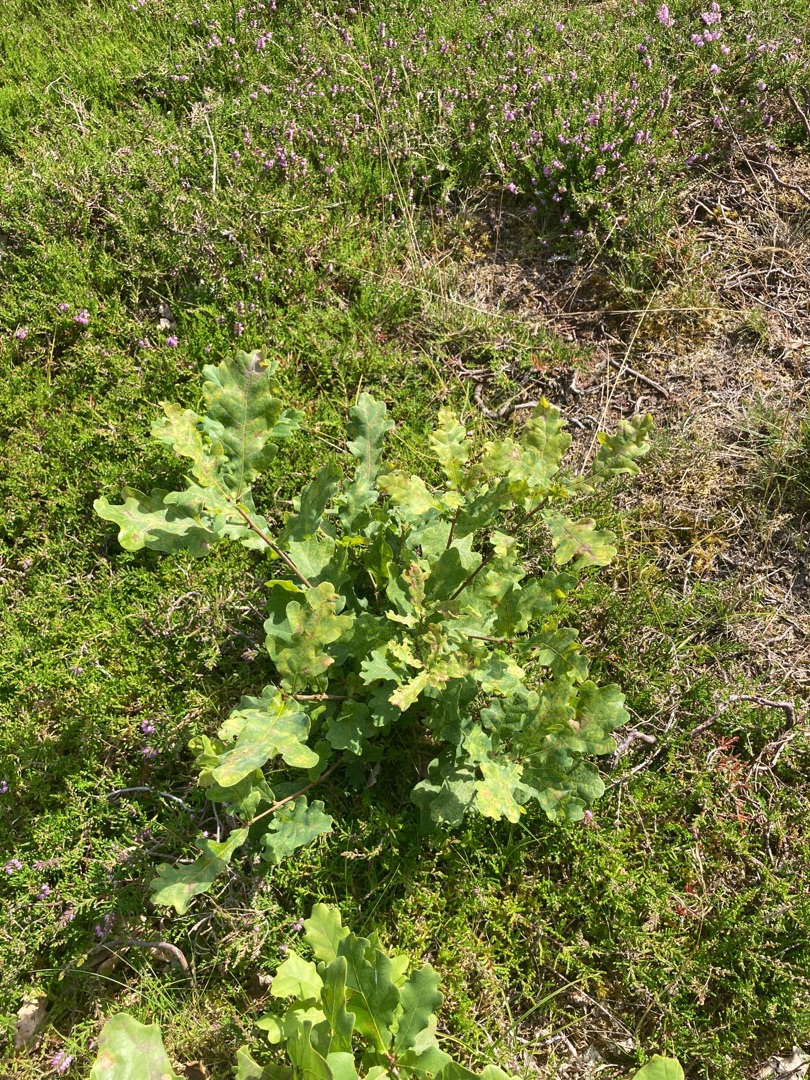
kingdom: Plantae
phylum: Tracheophyta
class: Magnoliopsida
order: Fagales
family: Fagaceae
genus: Quercus
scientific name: Quercus robur
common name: Stilk-eg/almindelig eg
